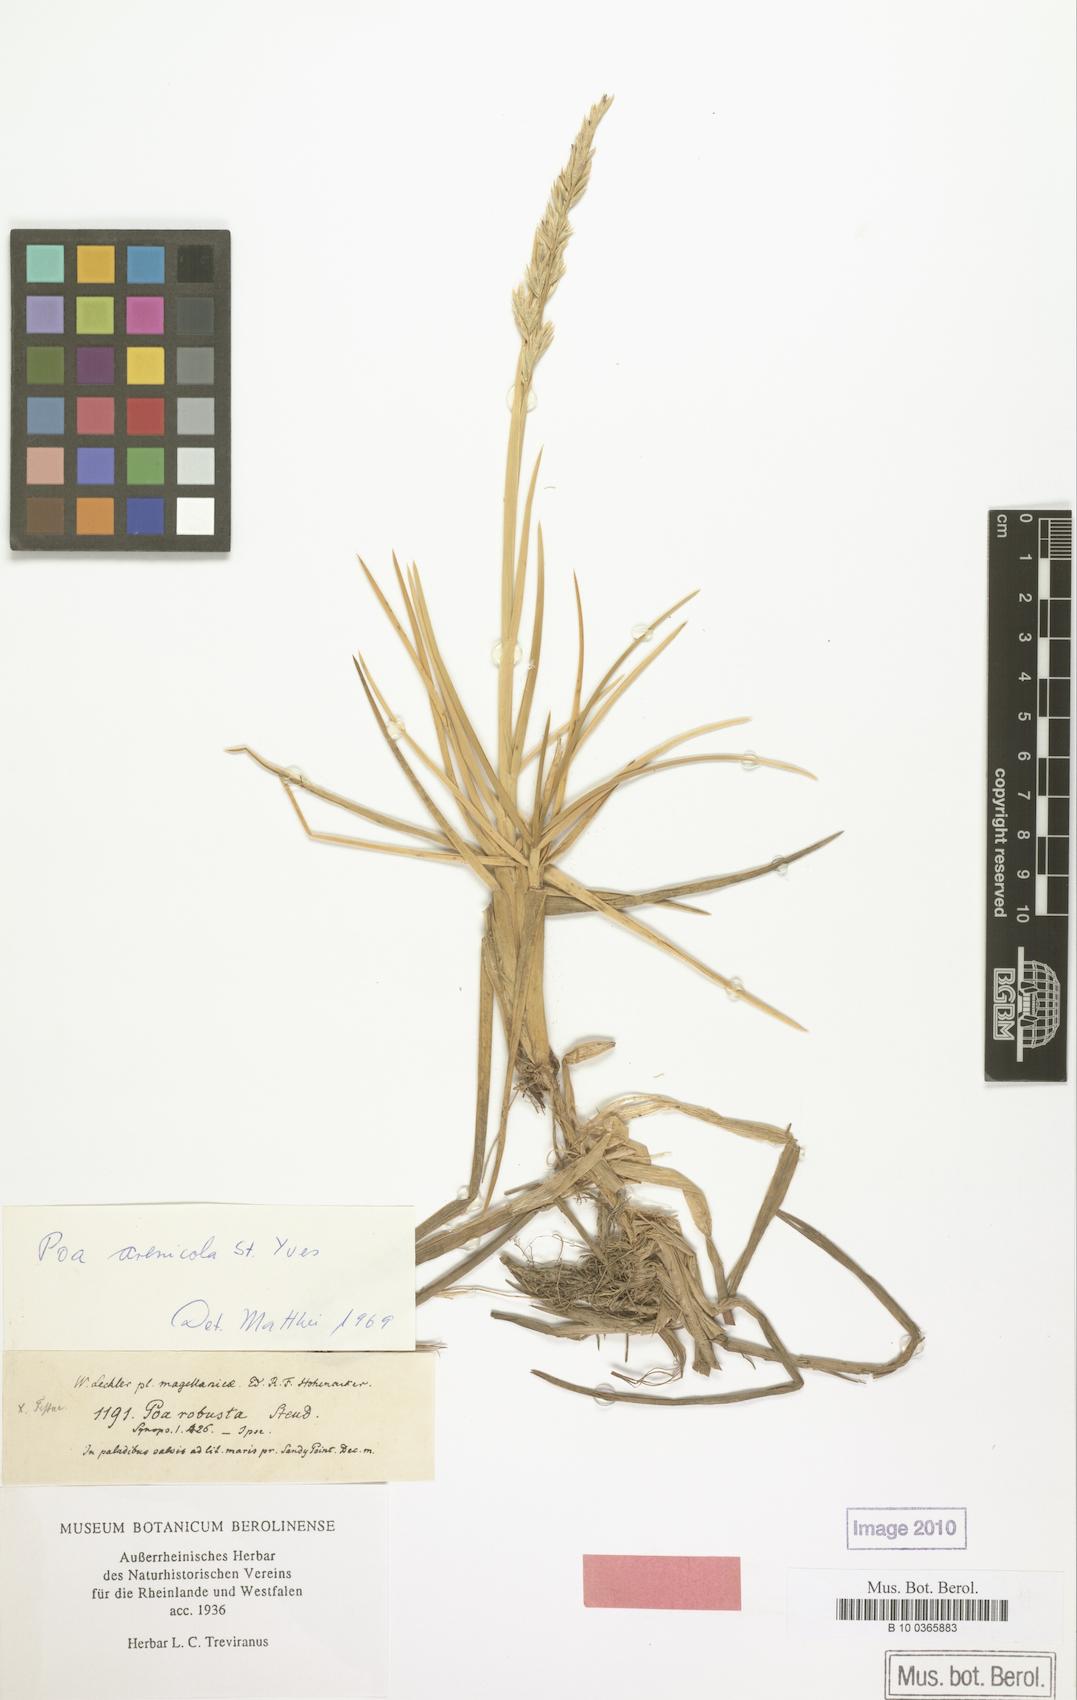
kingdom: Plantae
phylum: Tracheophyta
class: Liliopsida
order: Poales
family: Poaceae
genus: Nicoraepoa
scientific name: Nicoraepoa robusta
